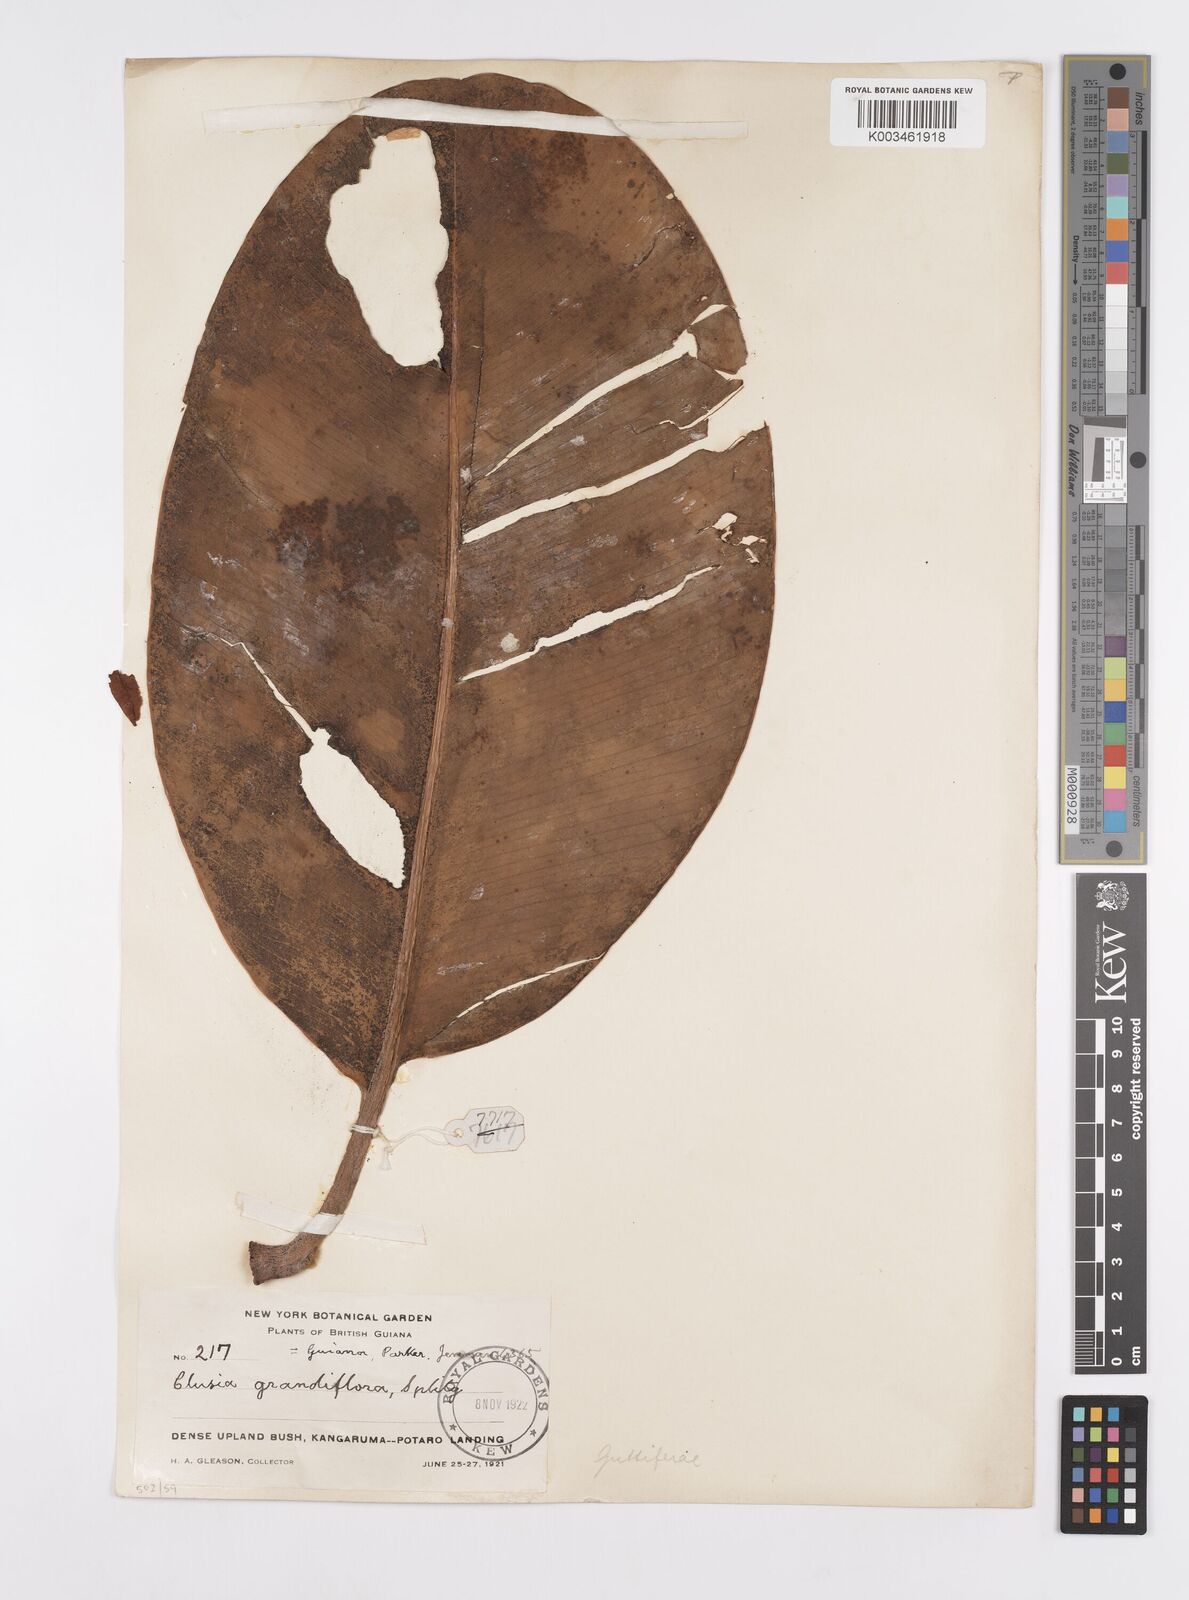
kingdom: Plantae
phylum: Tracheophyta
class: Magnoliopsida
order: Malpighiales
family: Clusiaceae
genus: Clusia
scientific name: Clusia grandiflora
